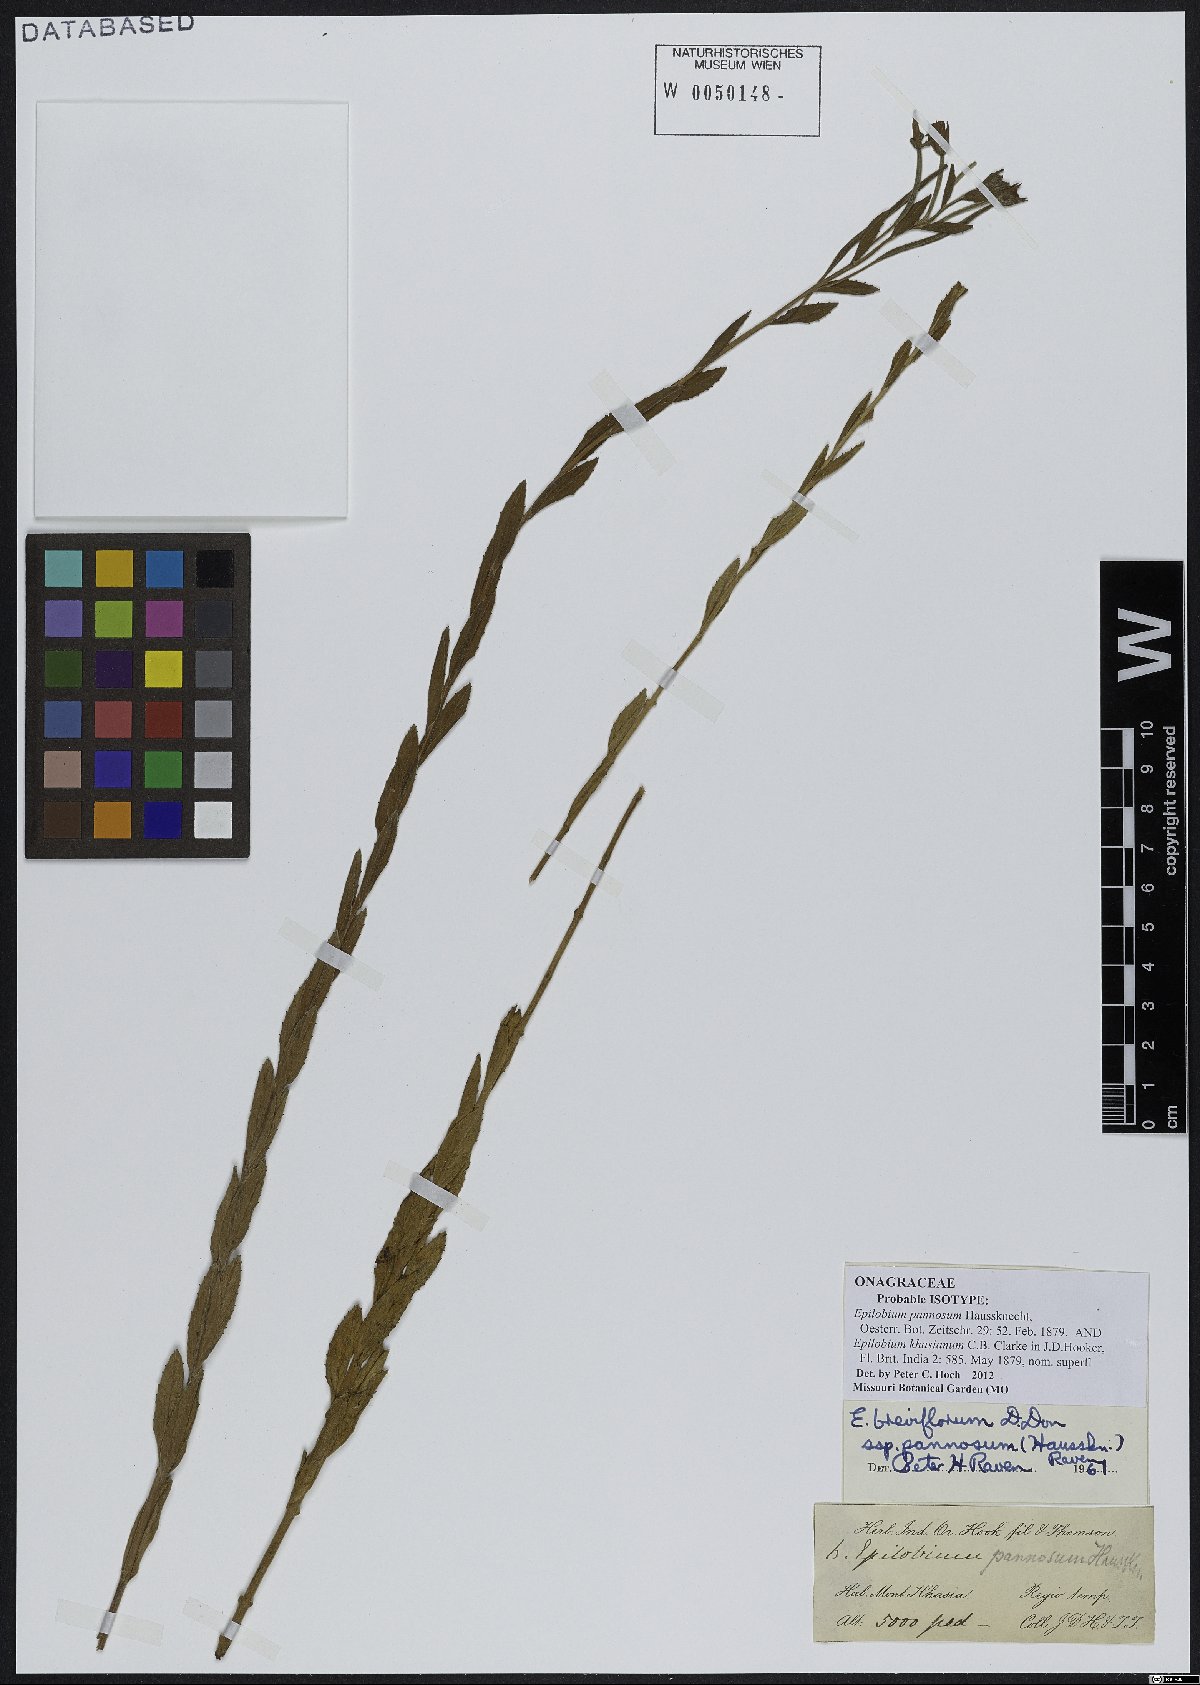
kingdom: Plantae
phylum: Tracheophyta
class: Magnoliopsida
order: Myrtales
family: Onagraceae
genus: Epilobium
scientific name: Epilobium pannosum
